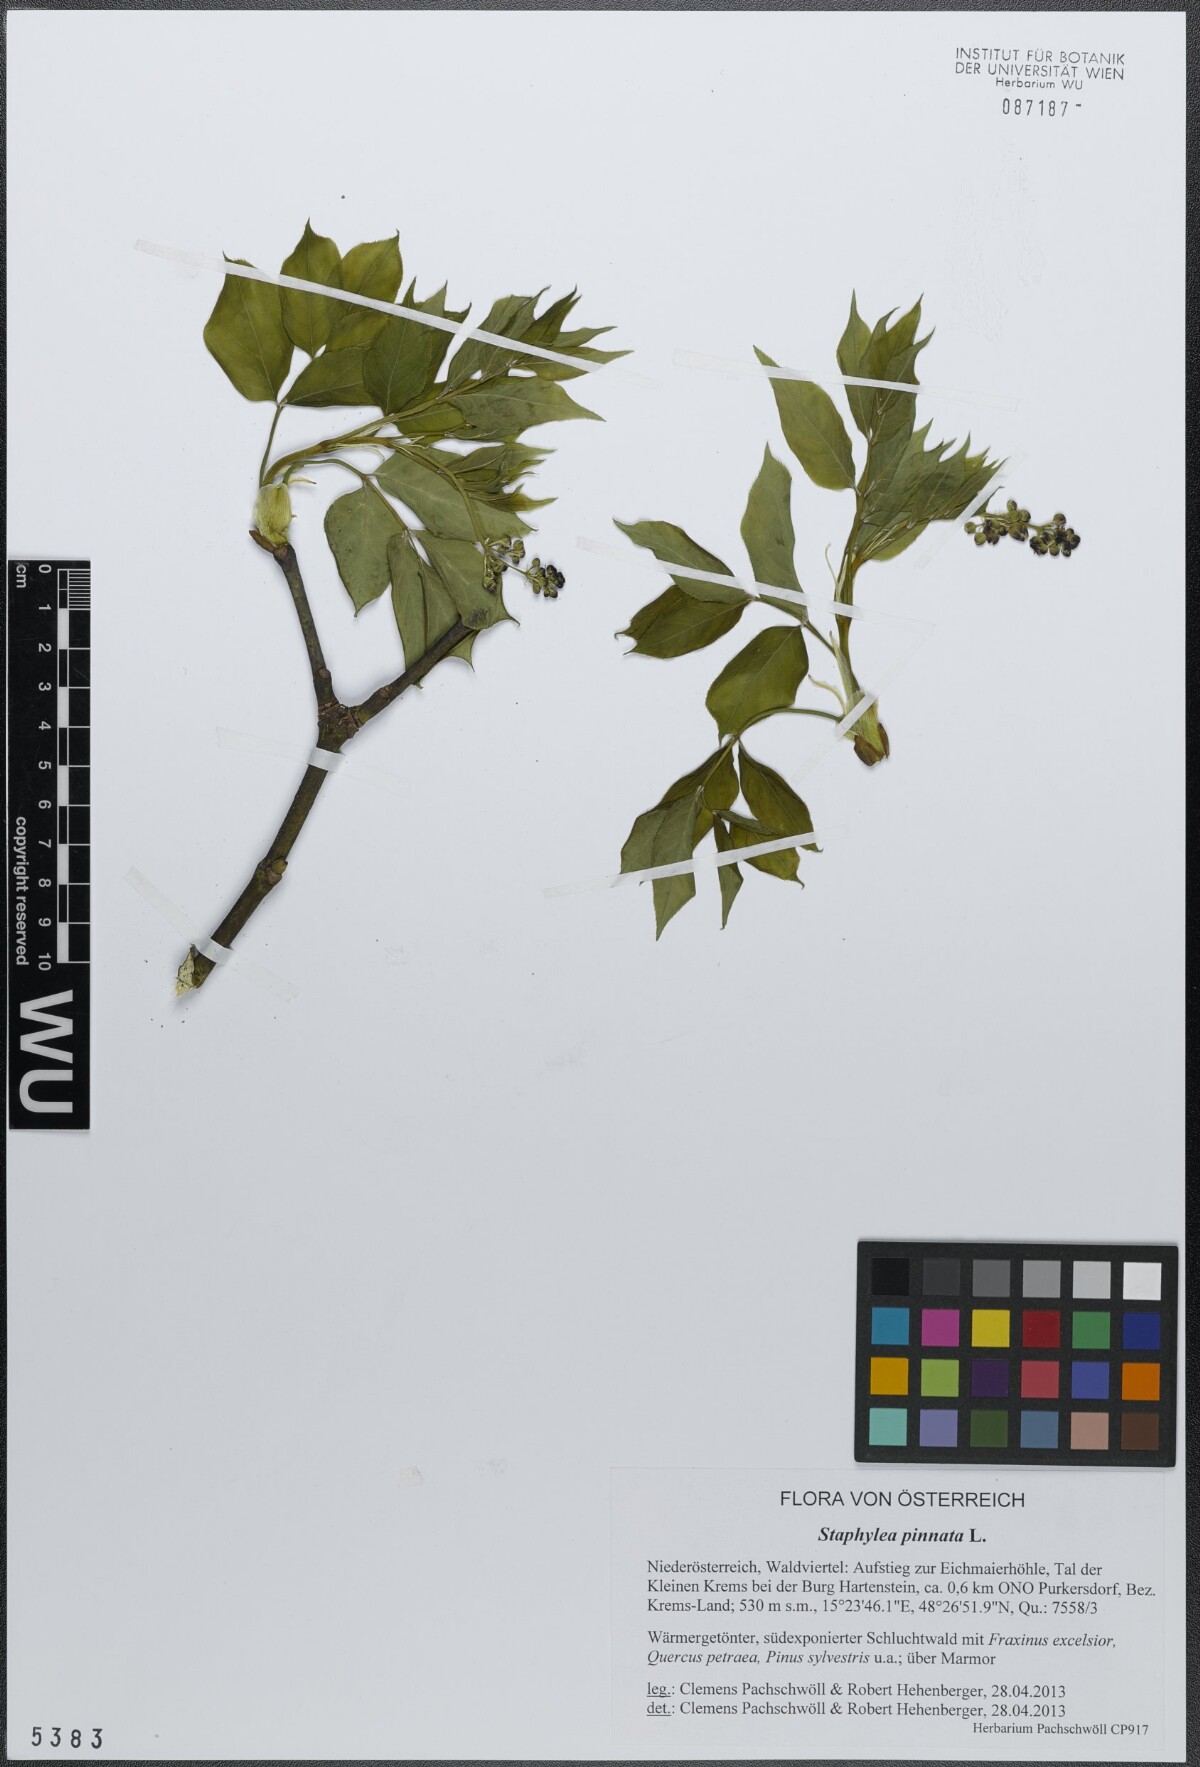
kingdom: Plantae
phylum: Tracheophyta
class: Magnoliopsida
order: Crossosomatales
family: Staphyleaceae
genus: Staphylea
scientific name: Staphylea pinnata
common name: Bladdernut
